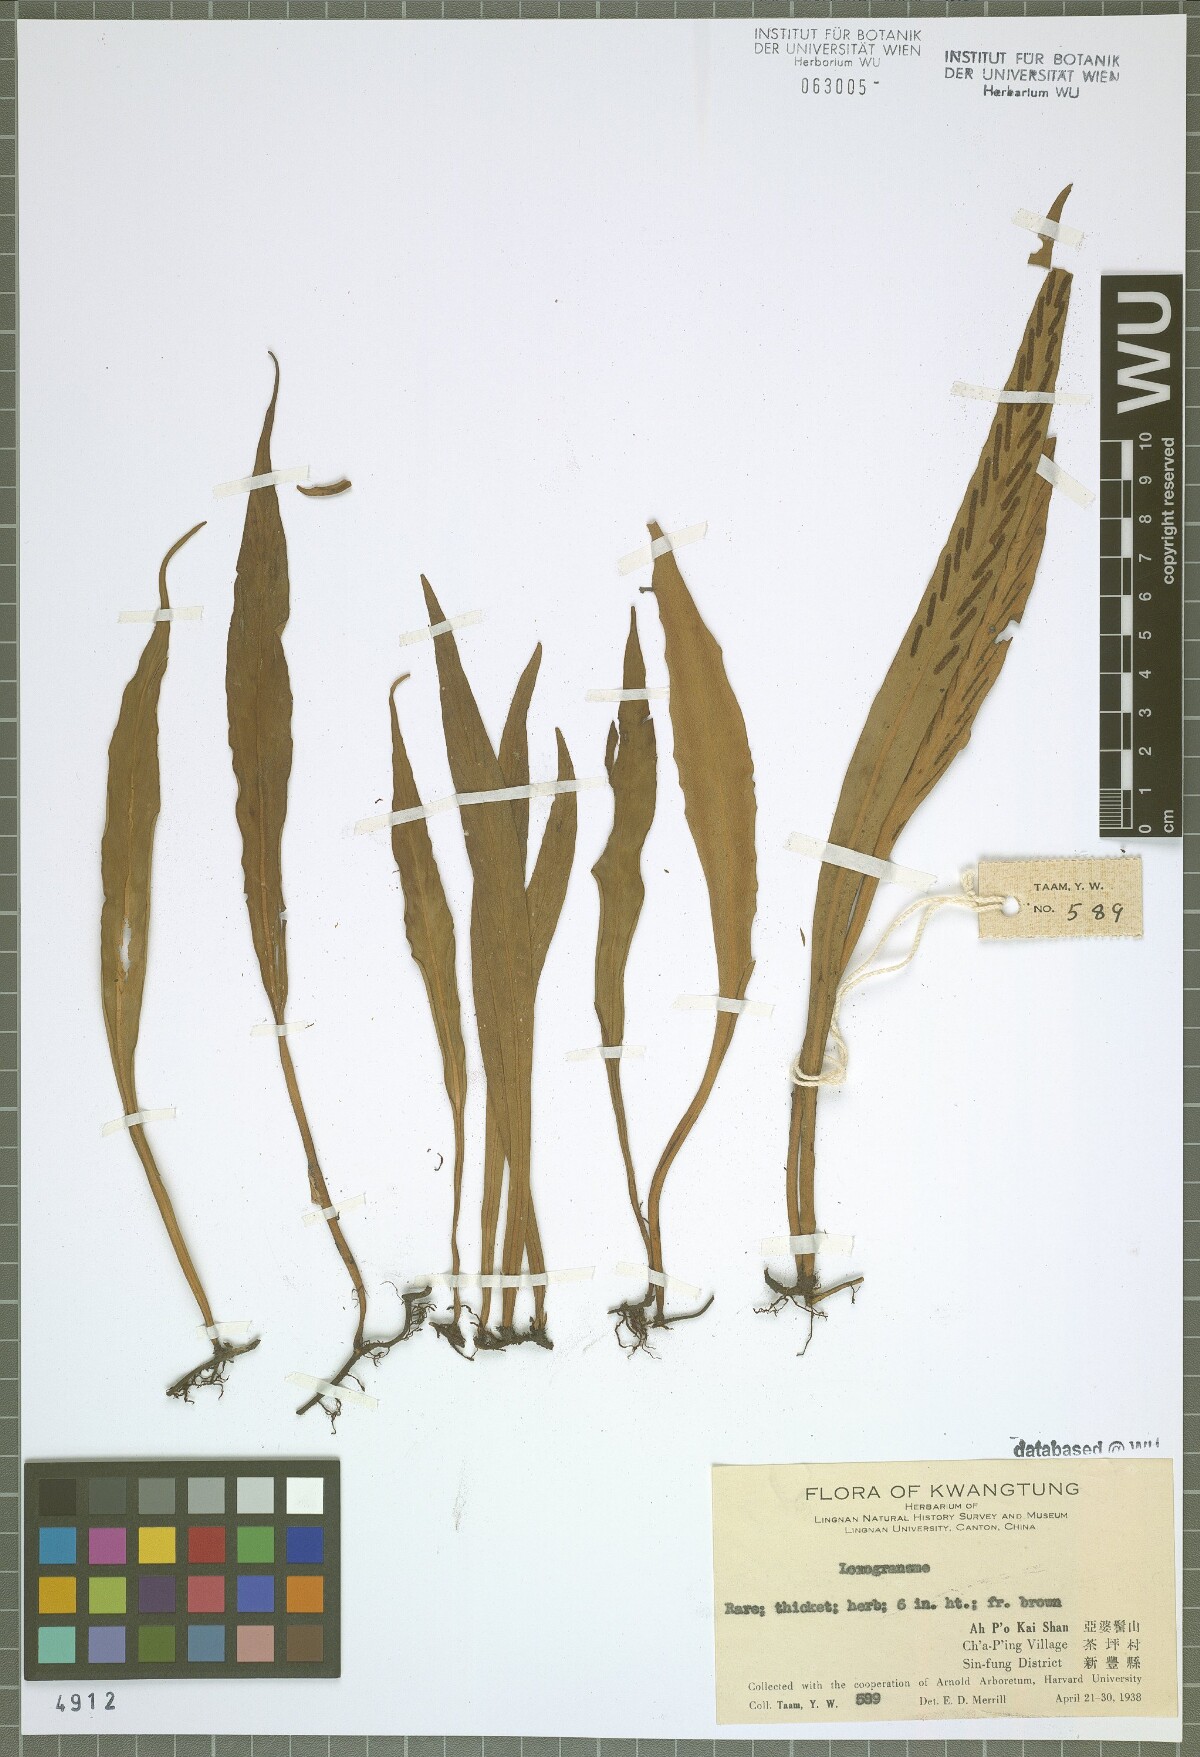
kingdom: Plantae
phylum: Tracheophyta
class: Polypodiopsida
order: Polypodiales
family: Polypodiaceae
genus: Loxogramme
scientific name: Loxogramme
